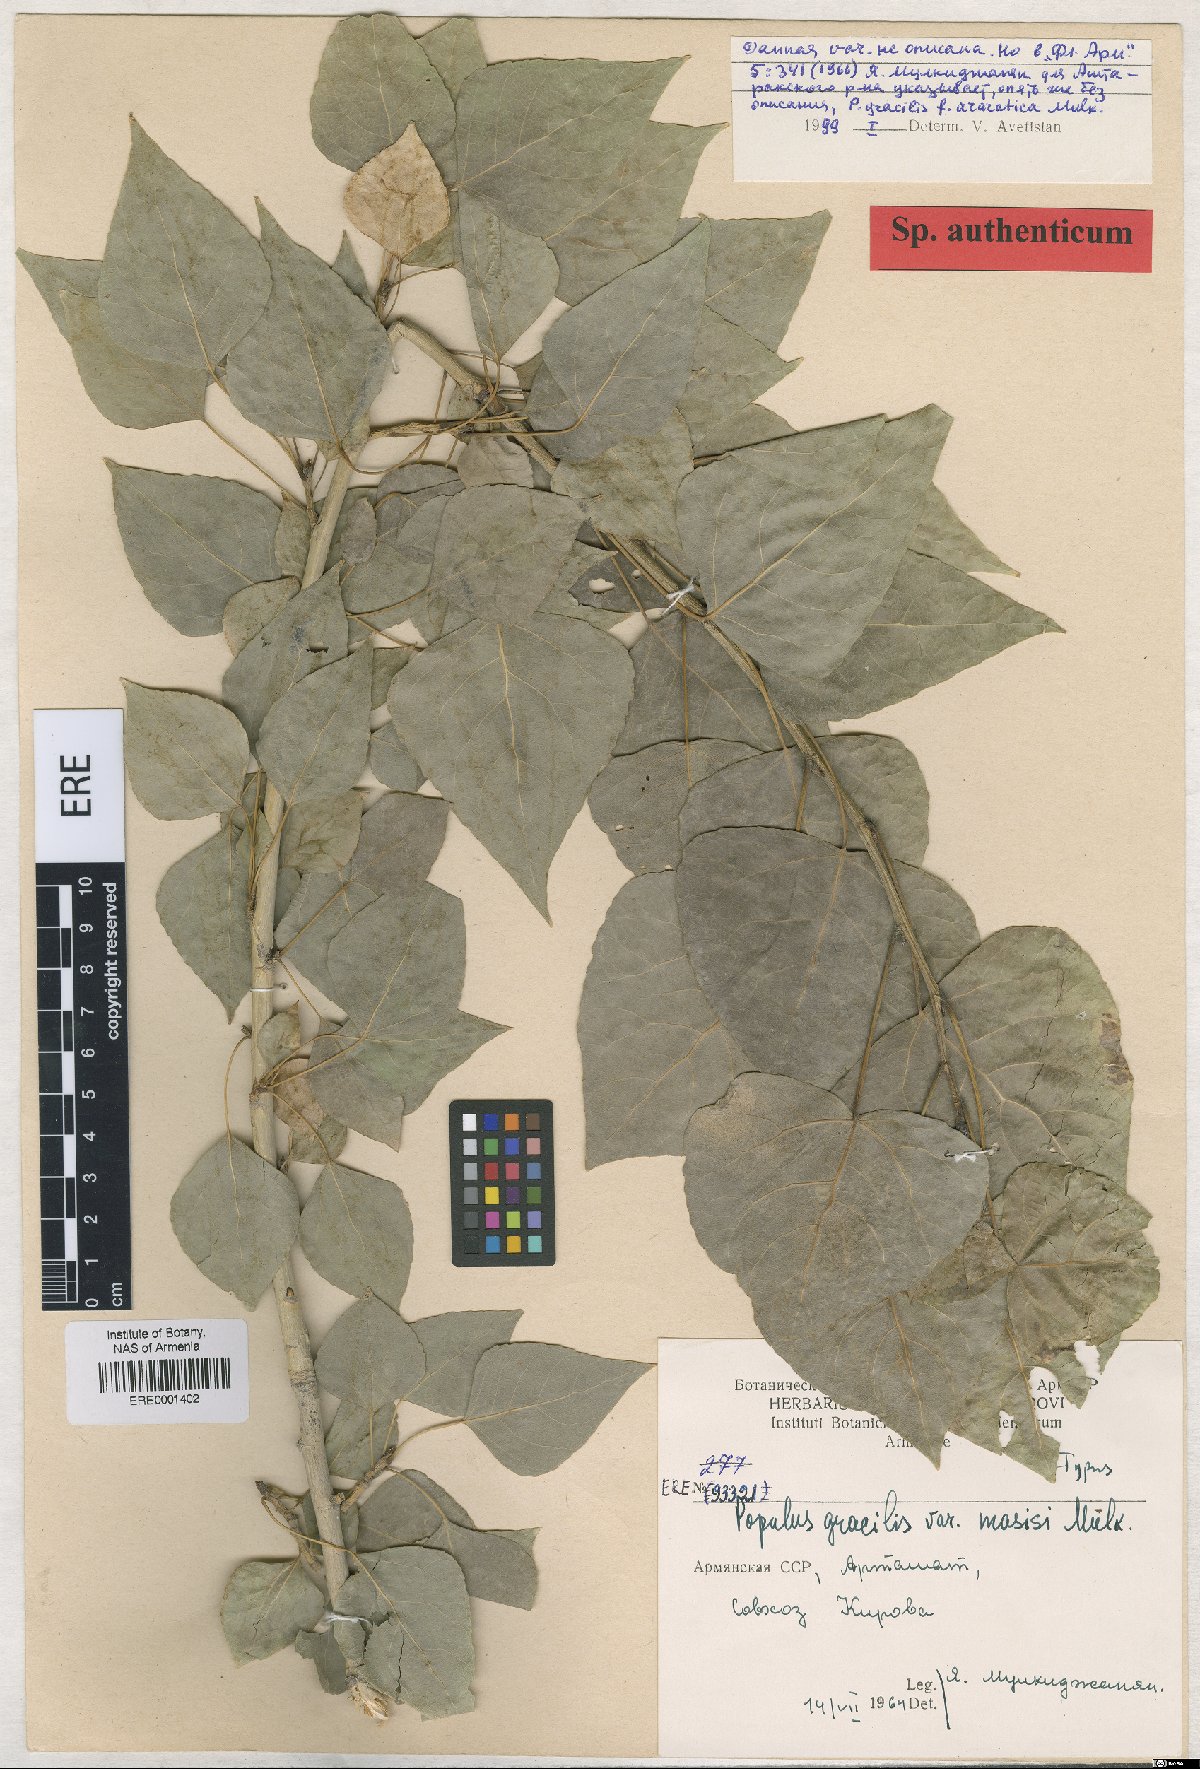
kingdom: Plantae
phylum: Tracheophyta
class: Magnoliopsida
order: Malpighiales
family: Salicaceae
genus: Populus
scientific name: Populus nigra
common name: Black poplar
